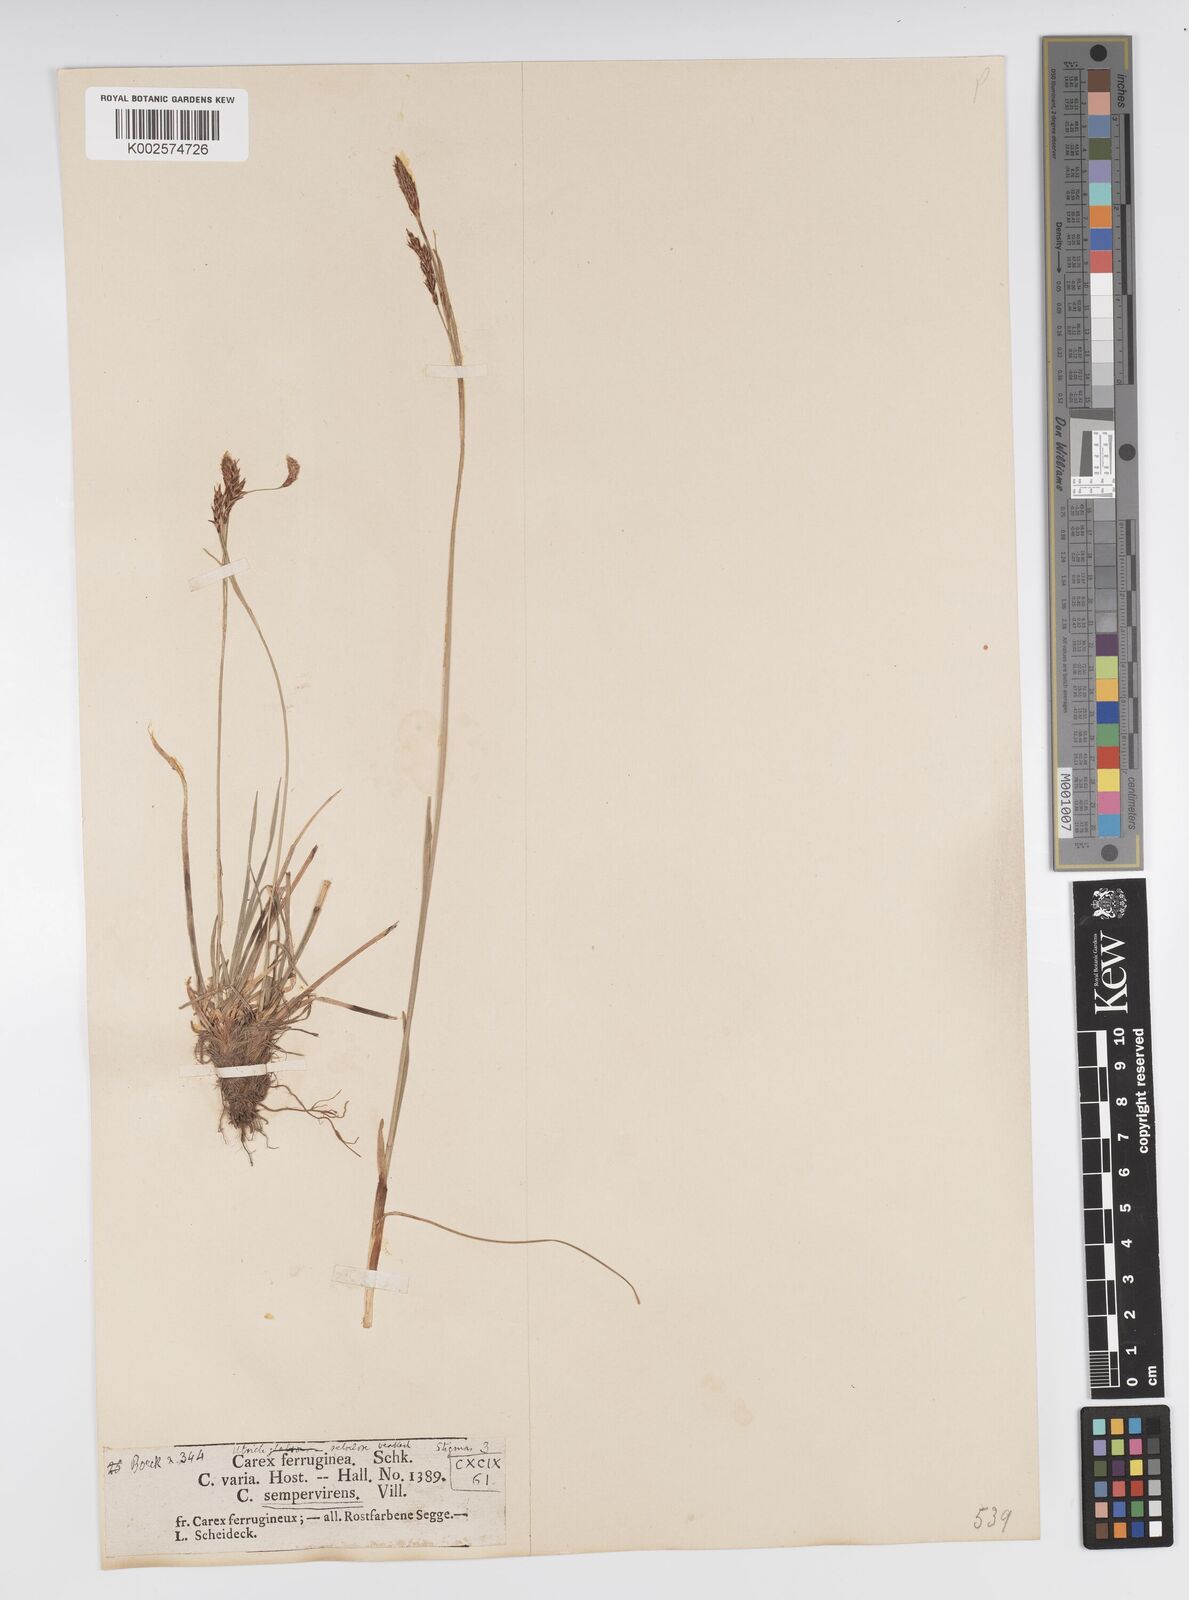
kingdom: Plantae
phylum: Tracheophyta
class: Liliopsida
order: Poales
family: Cyperaceae
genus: Carex
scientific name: Carex ferruginea
